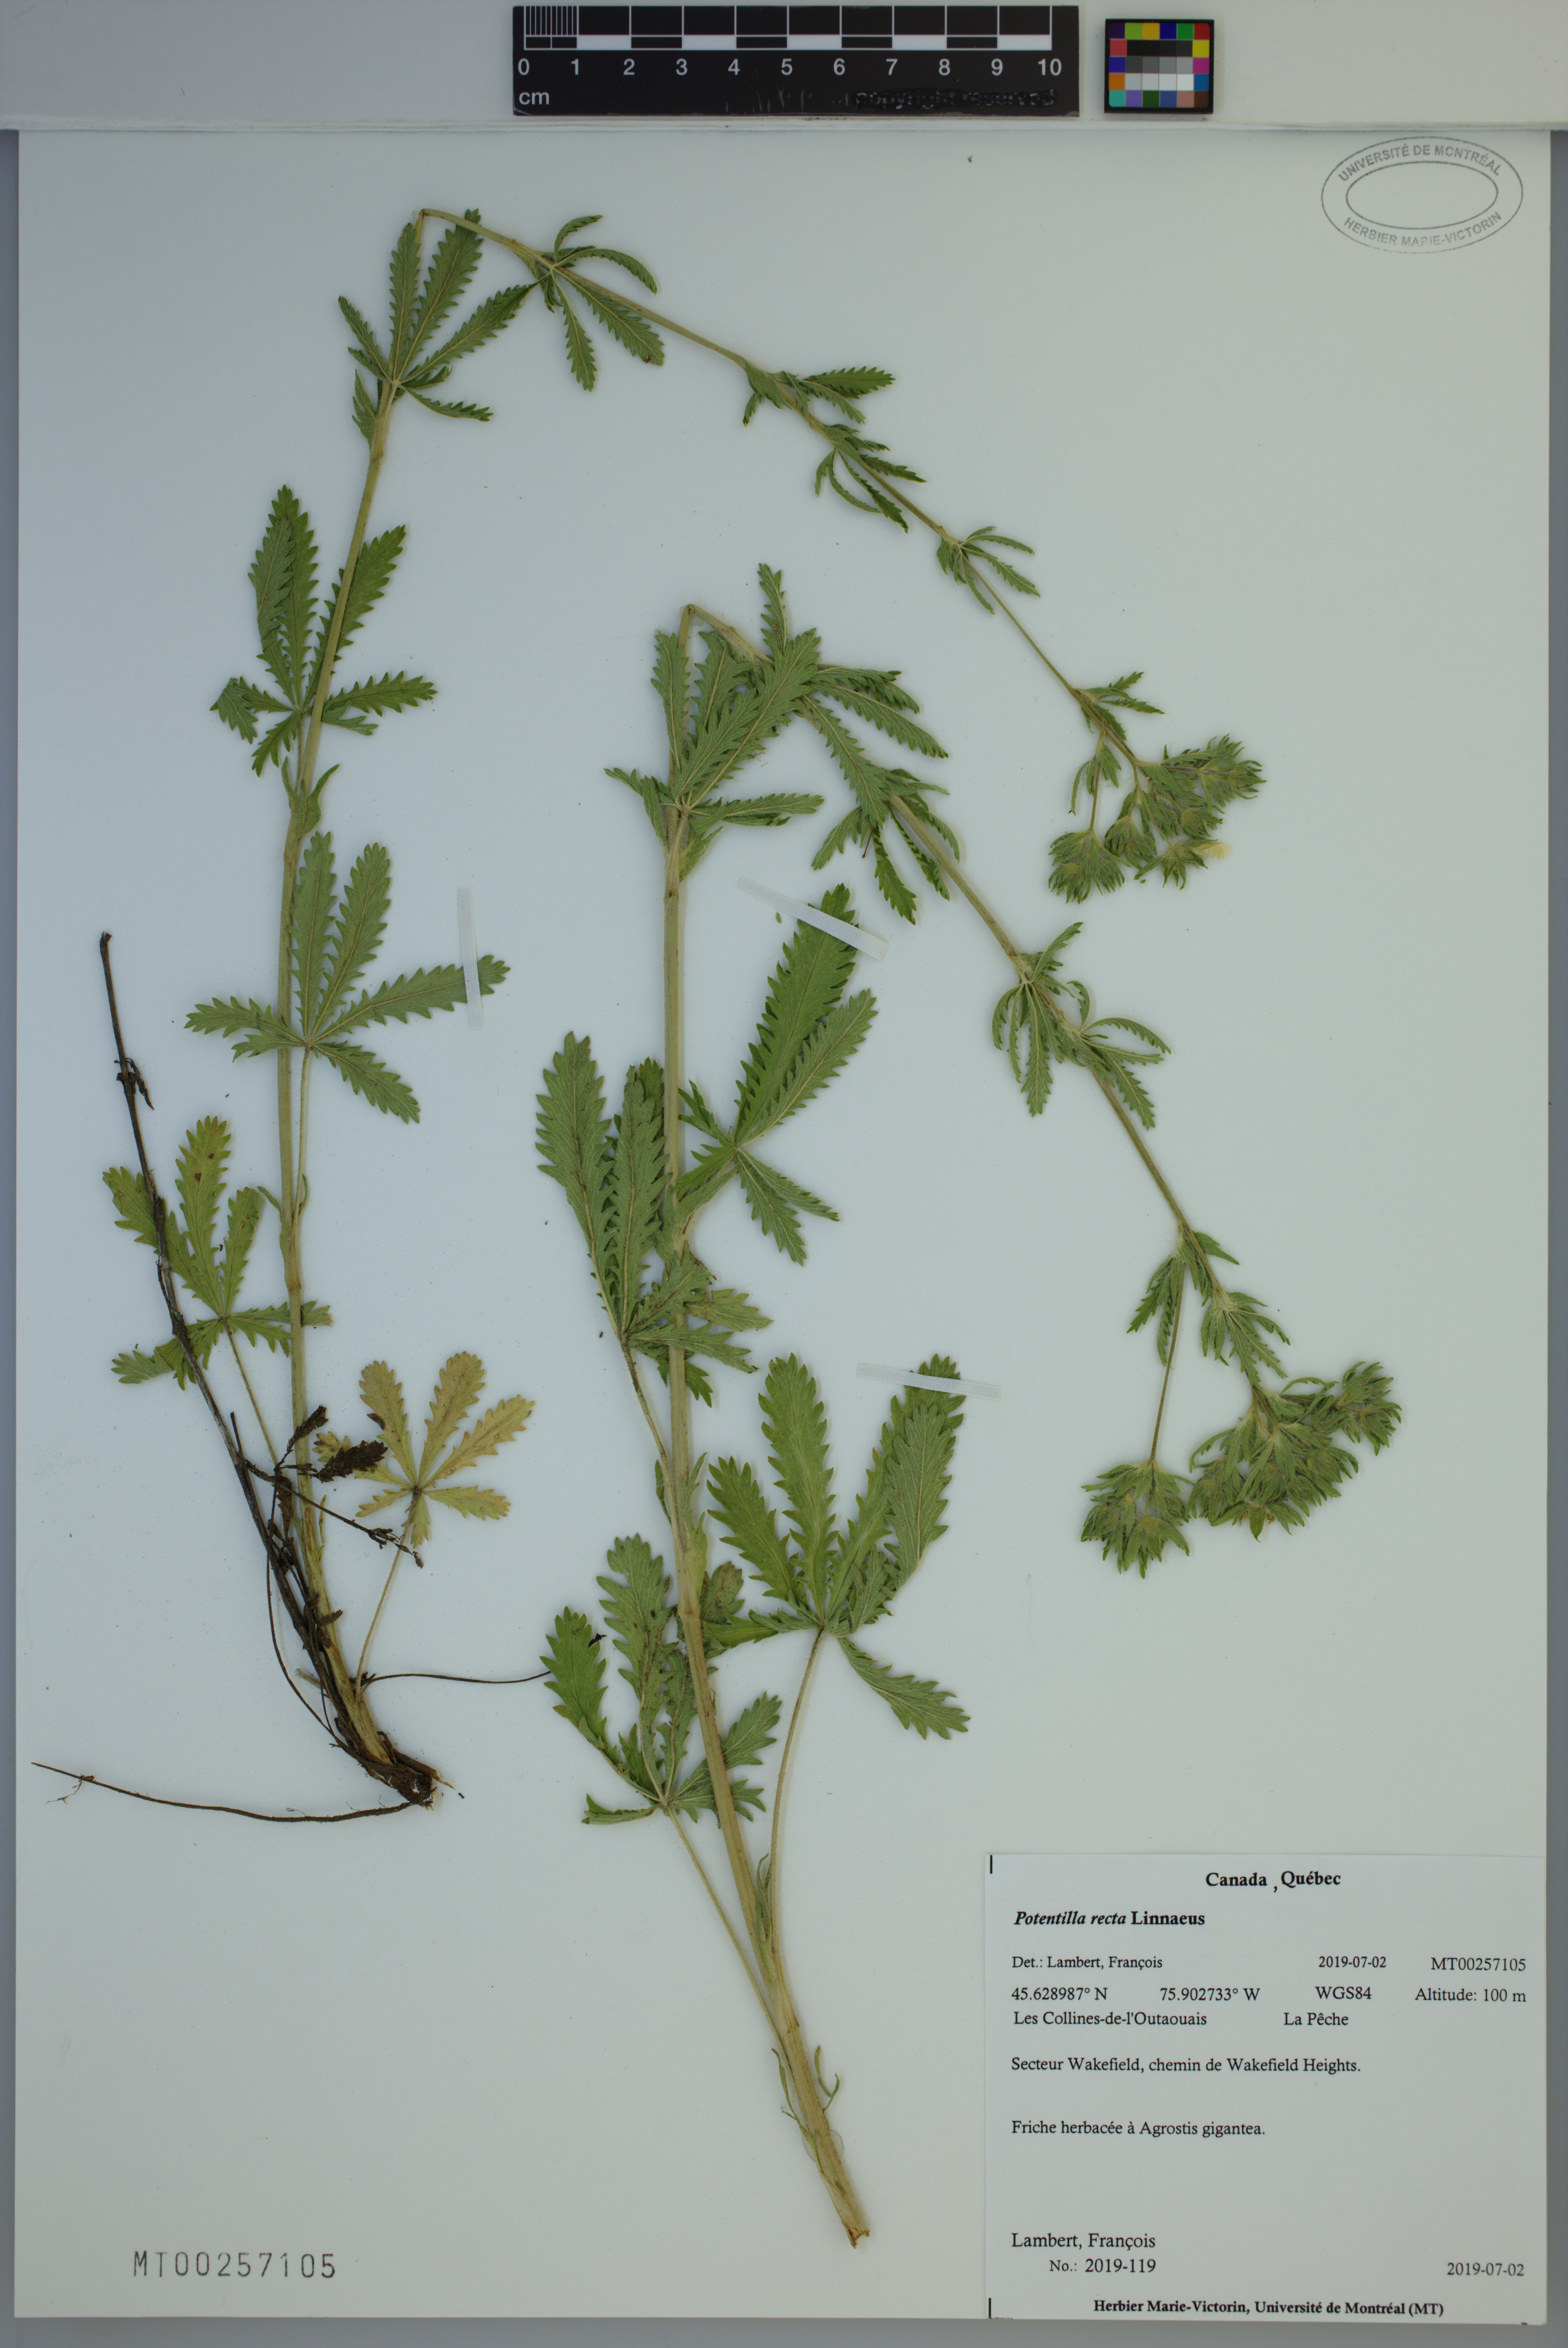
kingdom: Plantae
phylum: Tracheophyta
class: Magnoliopsida
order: Rosales
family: Rosaceae
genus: Potentilla
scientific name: Potentilla recta
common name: Sulphur cinquefoil
